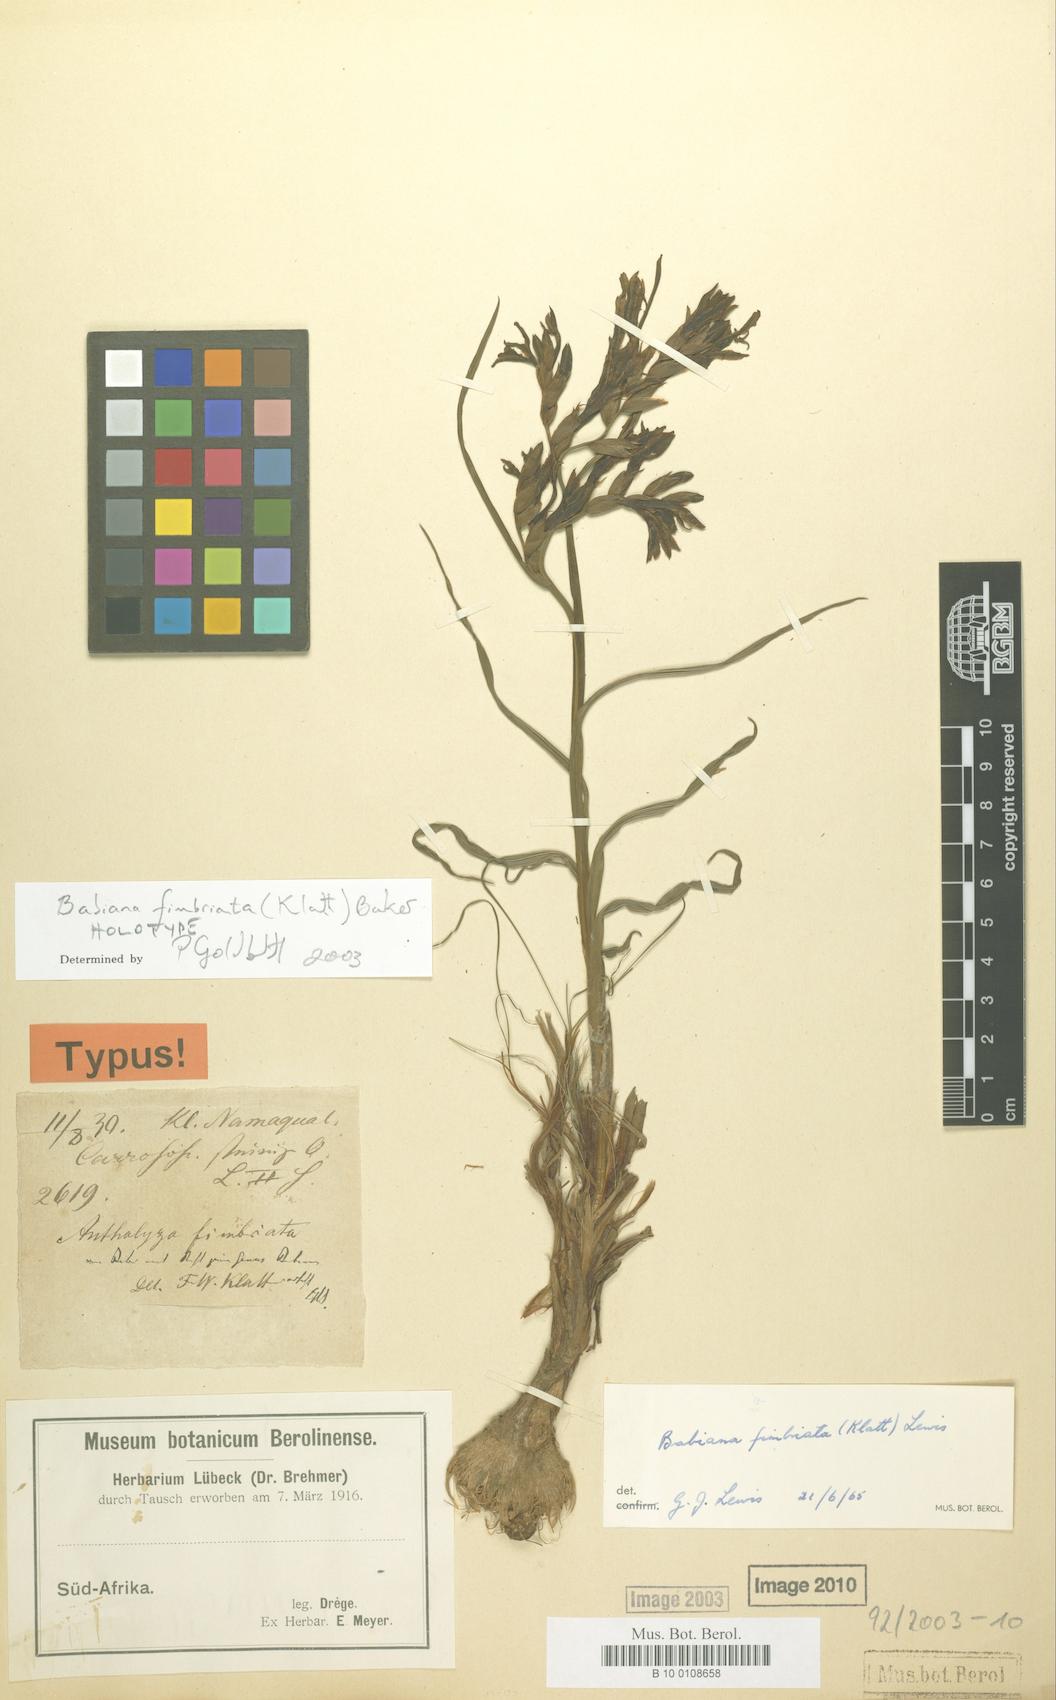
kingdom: Plantae
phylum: Tracheophyta
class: Liliopsida
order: Asparagales
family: Iridaceae
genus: Babiana
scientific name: Babiana fimbriata
